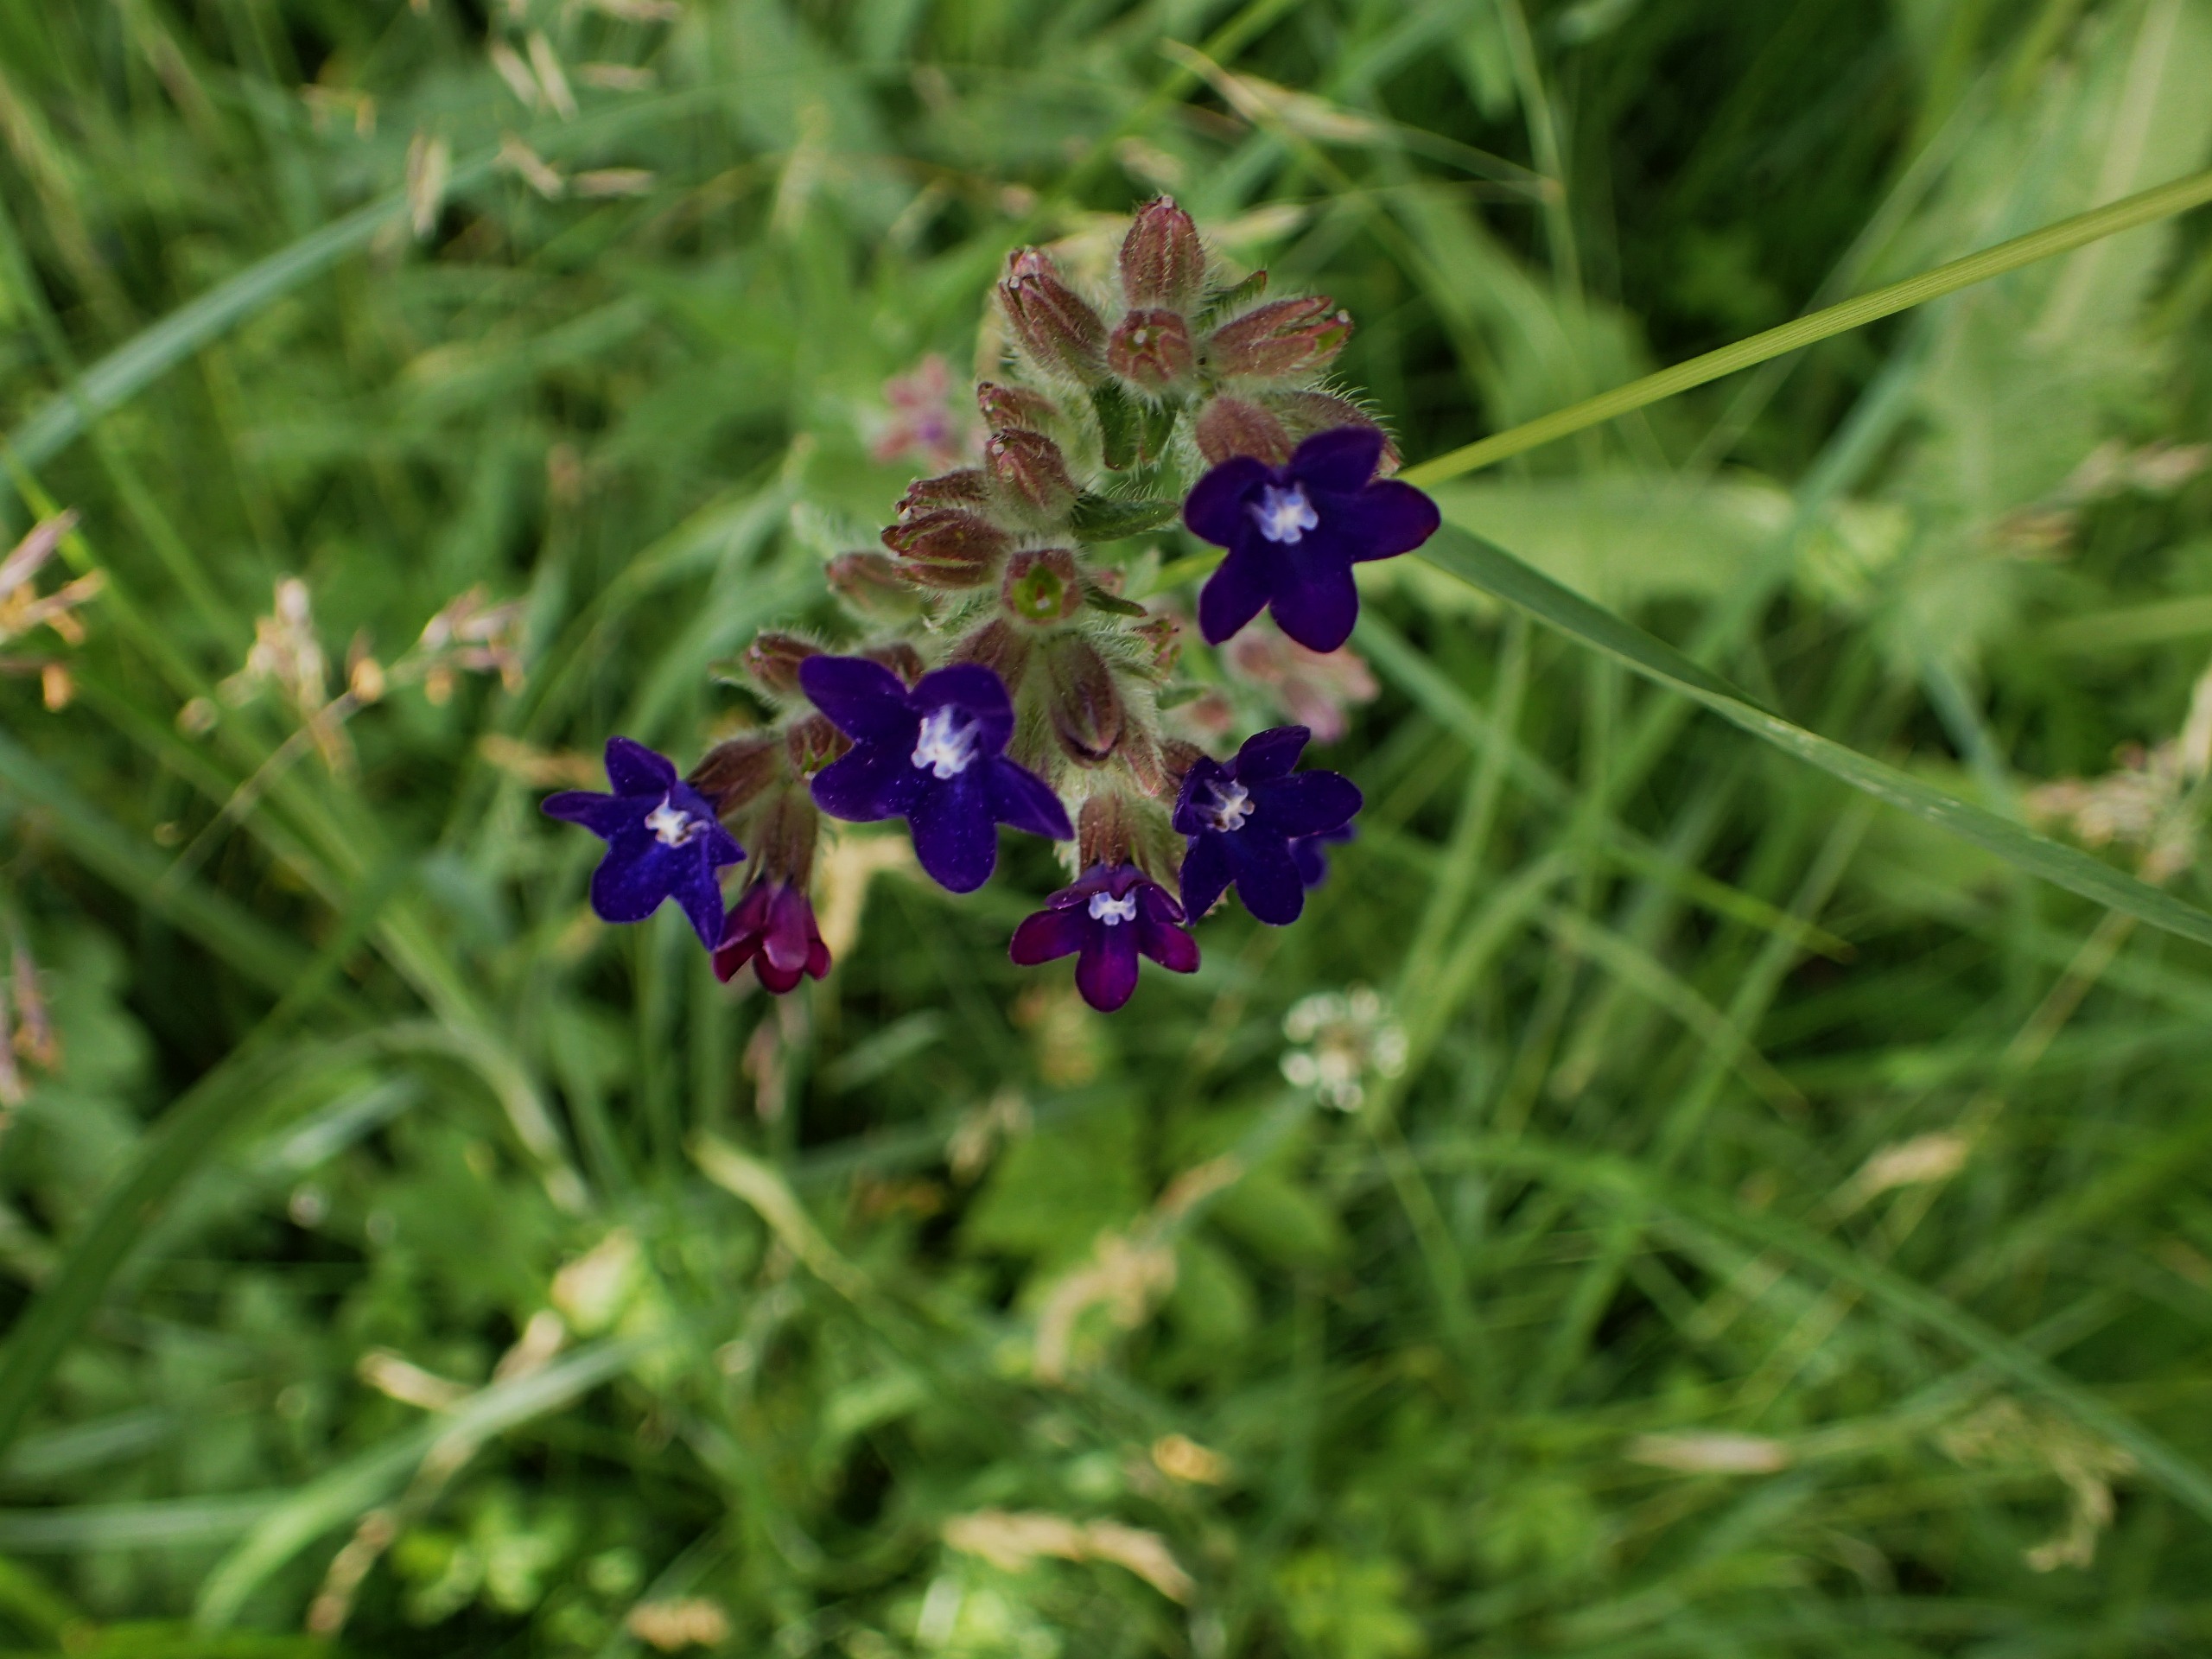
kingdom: Plantae
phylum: Tracheophyta
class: Magnoliopsida
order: Boraginales
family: Boraginaceae
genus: Anchusa
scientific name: Anchusa officinalis
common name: Læge-oksetunge
